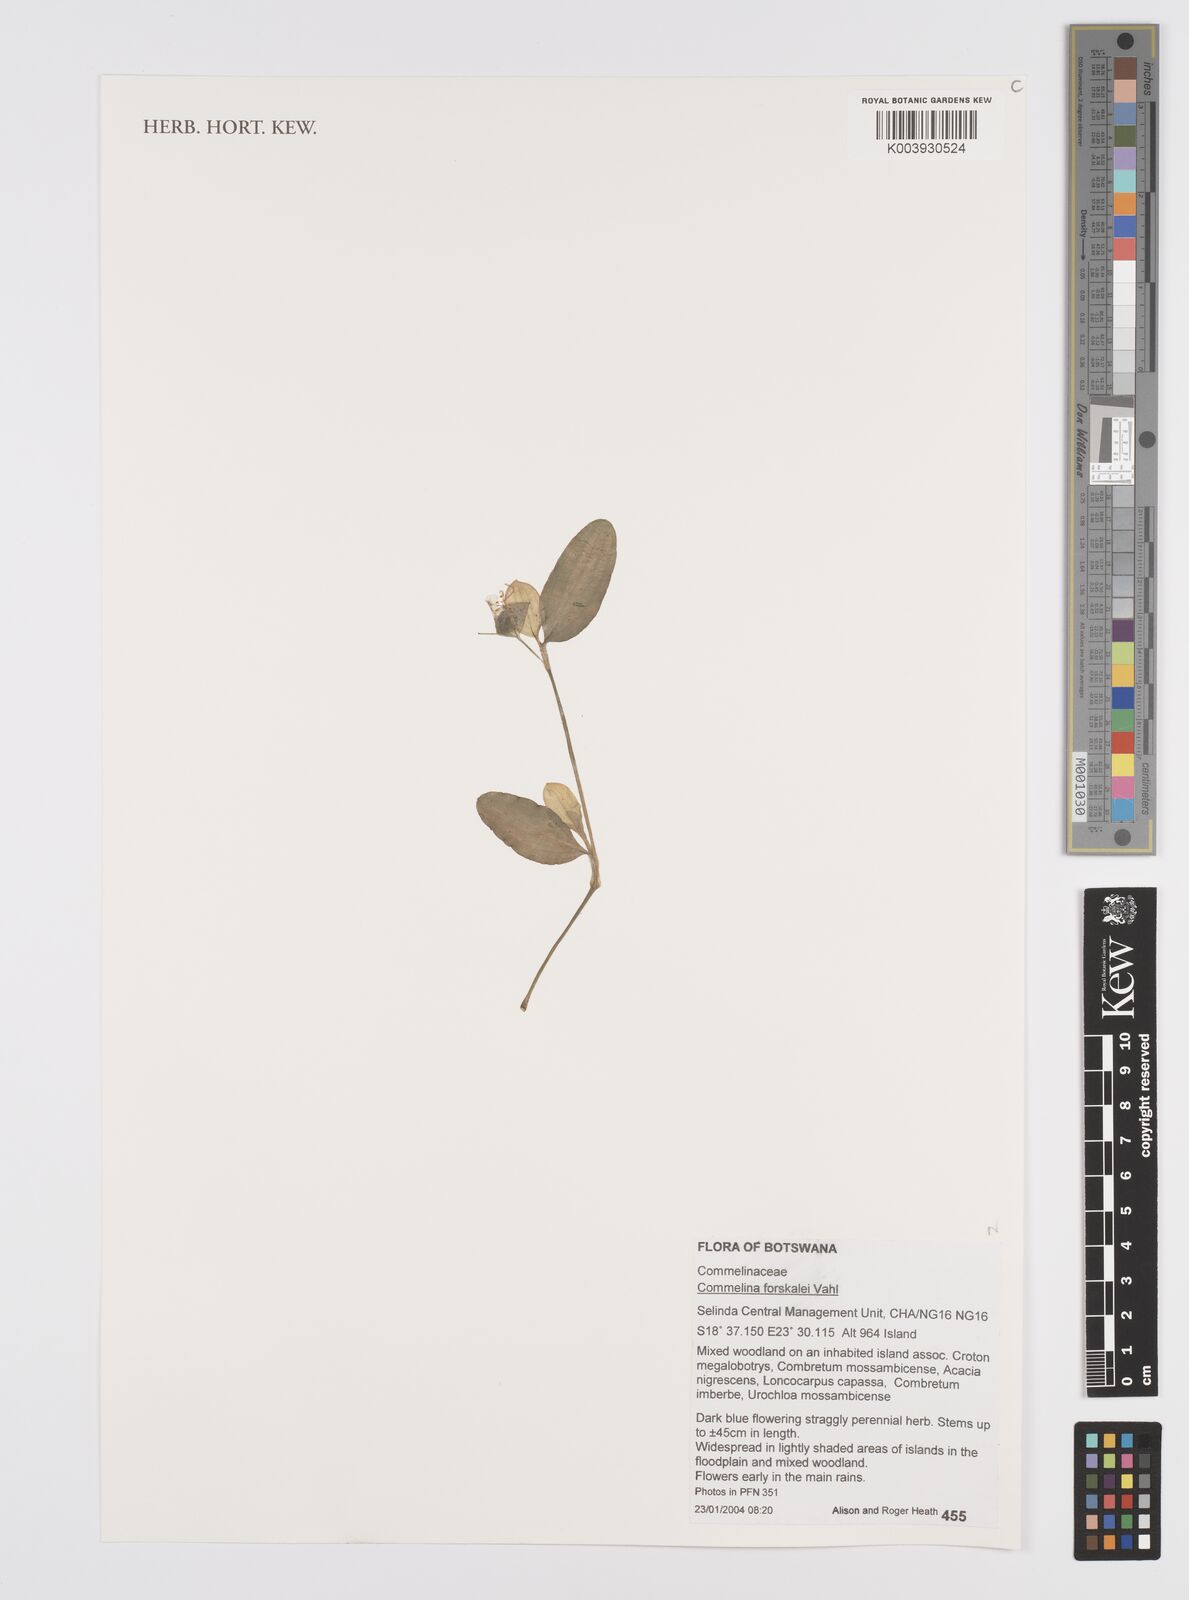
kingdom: Plantae
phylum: Tracheophyta
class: Liliopsida
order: Commelinales
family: Commelinaceae
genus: Commelina
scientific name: Commelina forskaolii
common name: Rat's ear
